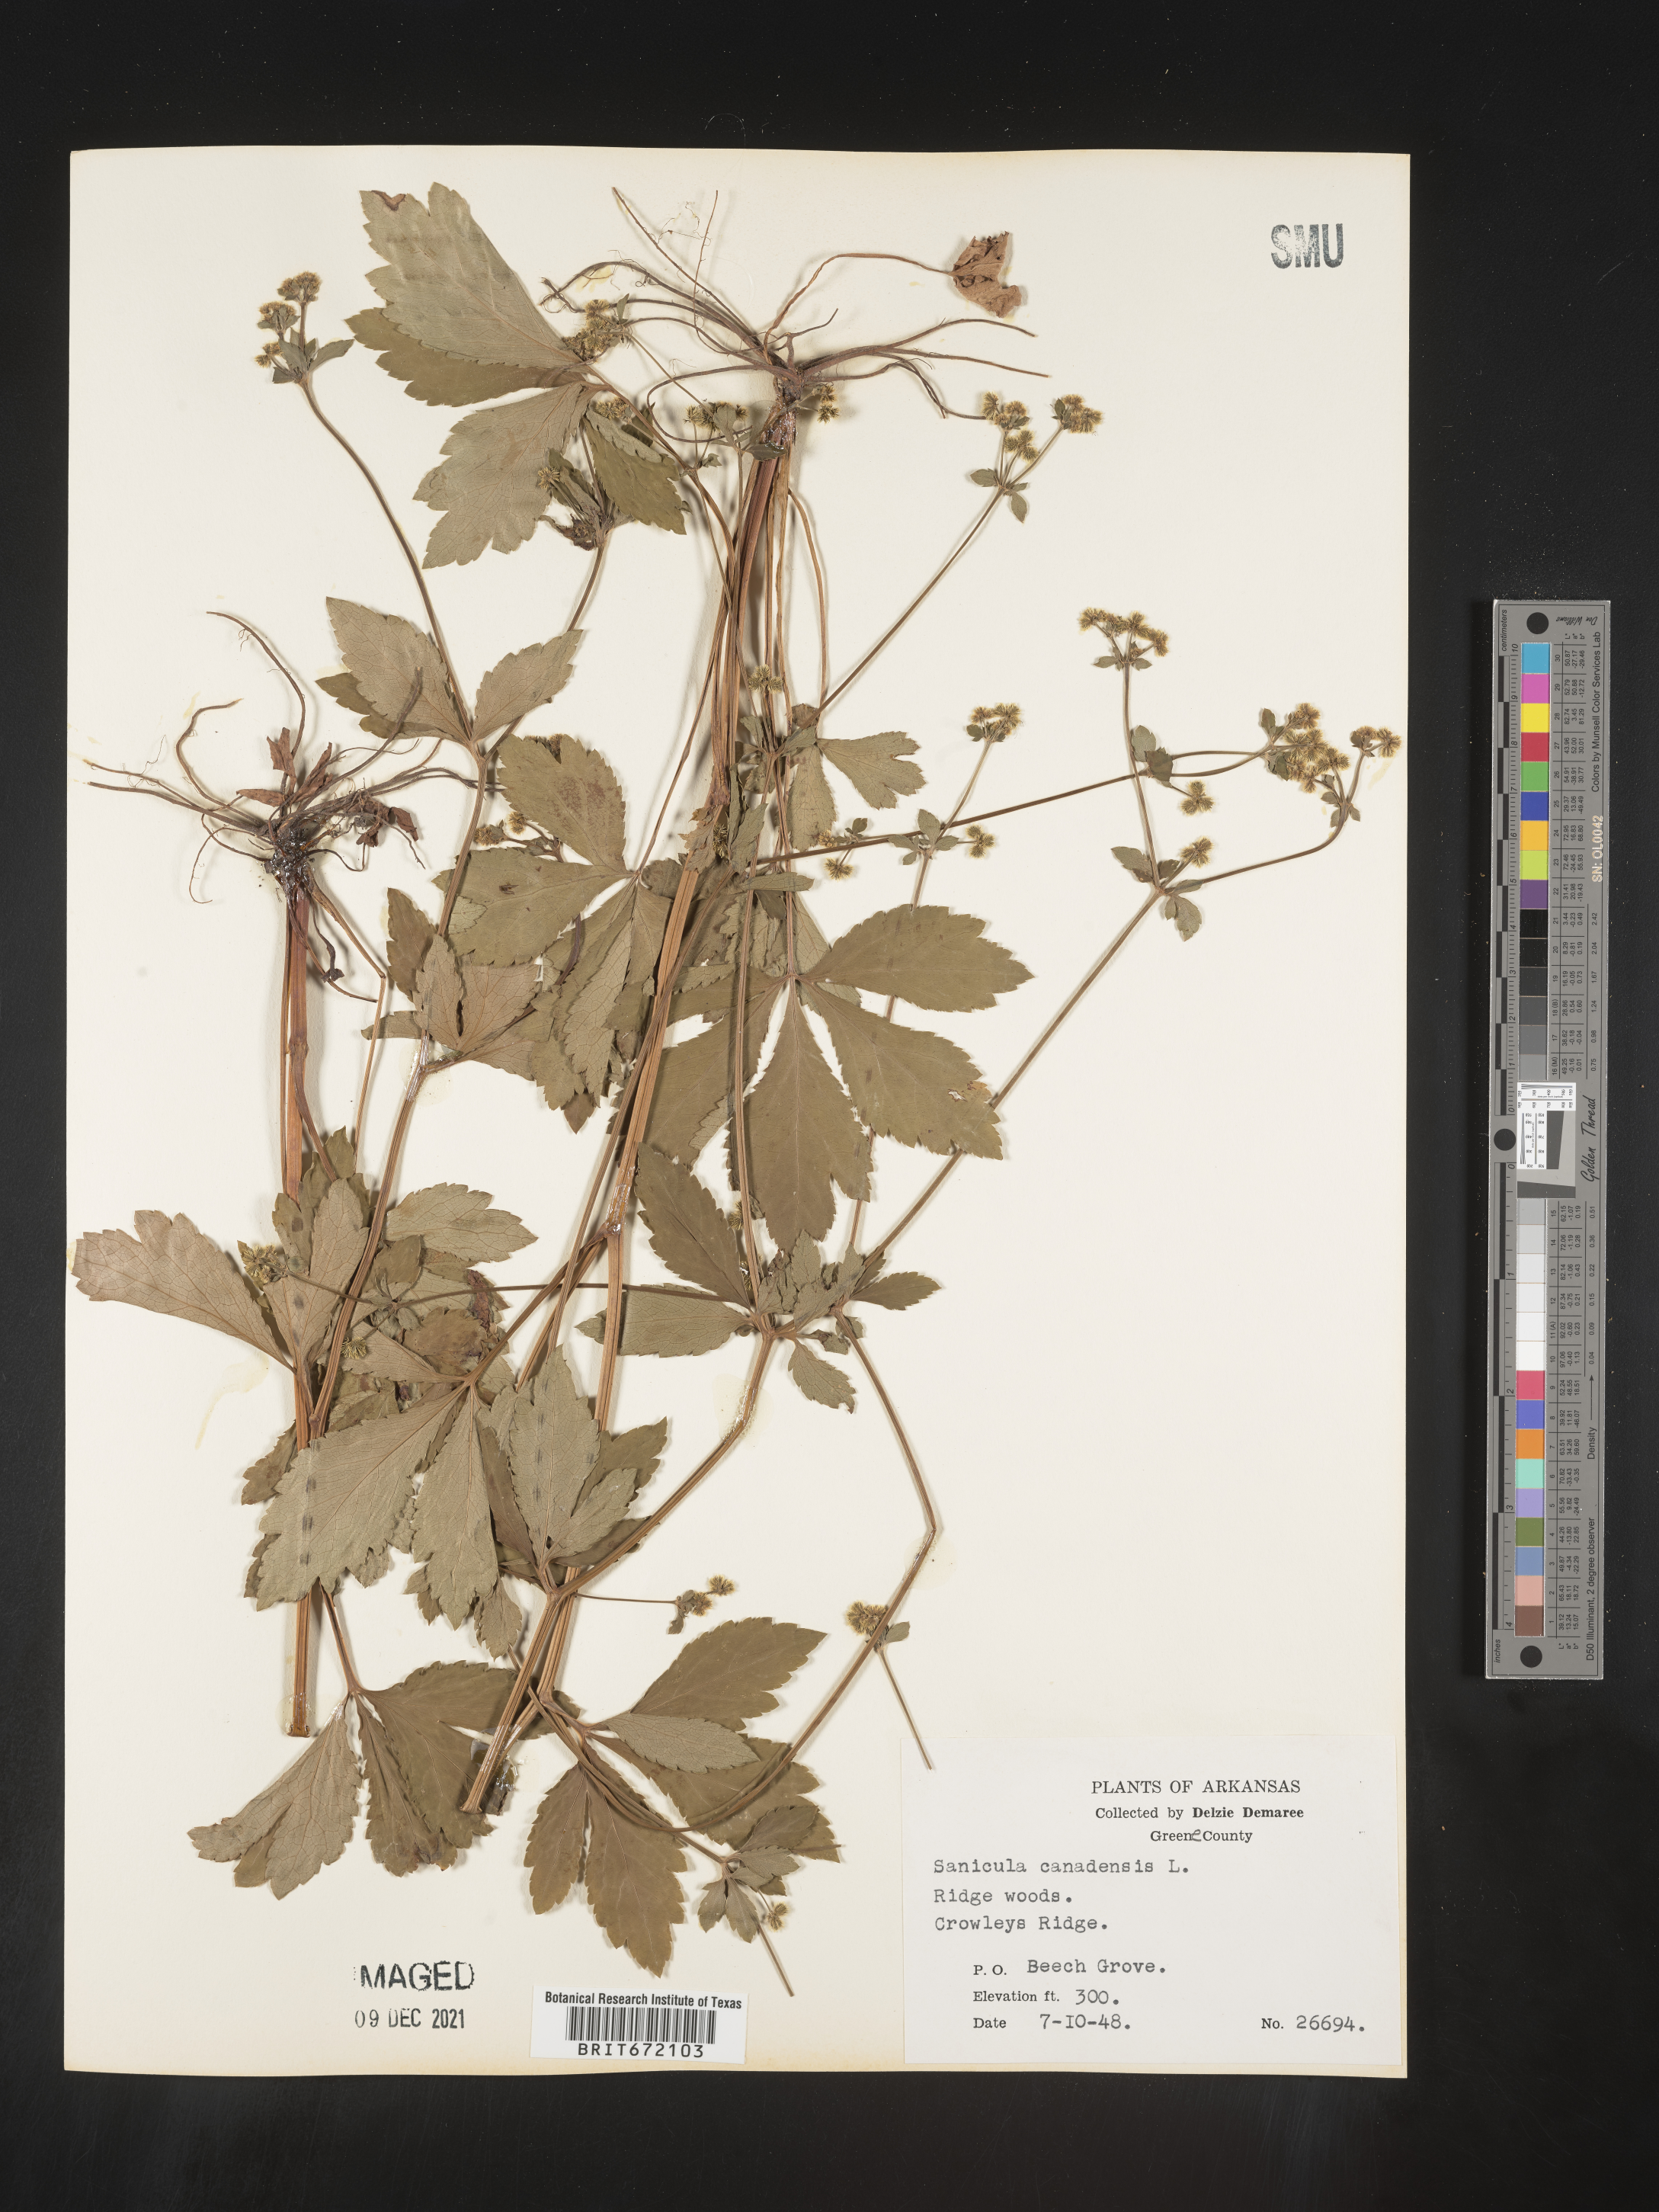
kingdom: Plantae
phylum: Tracheophyta
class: Magnoliopsida
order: Apiales
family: Apiaceae
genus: Sanicula
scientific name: Sanicula canadensis
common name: Canada sanicle
